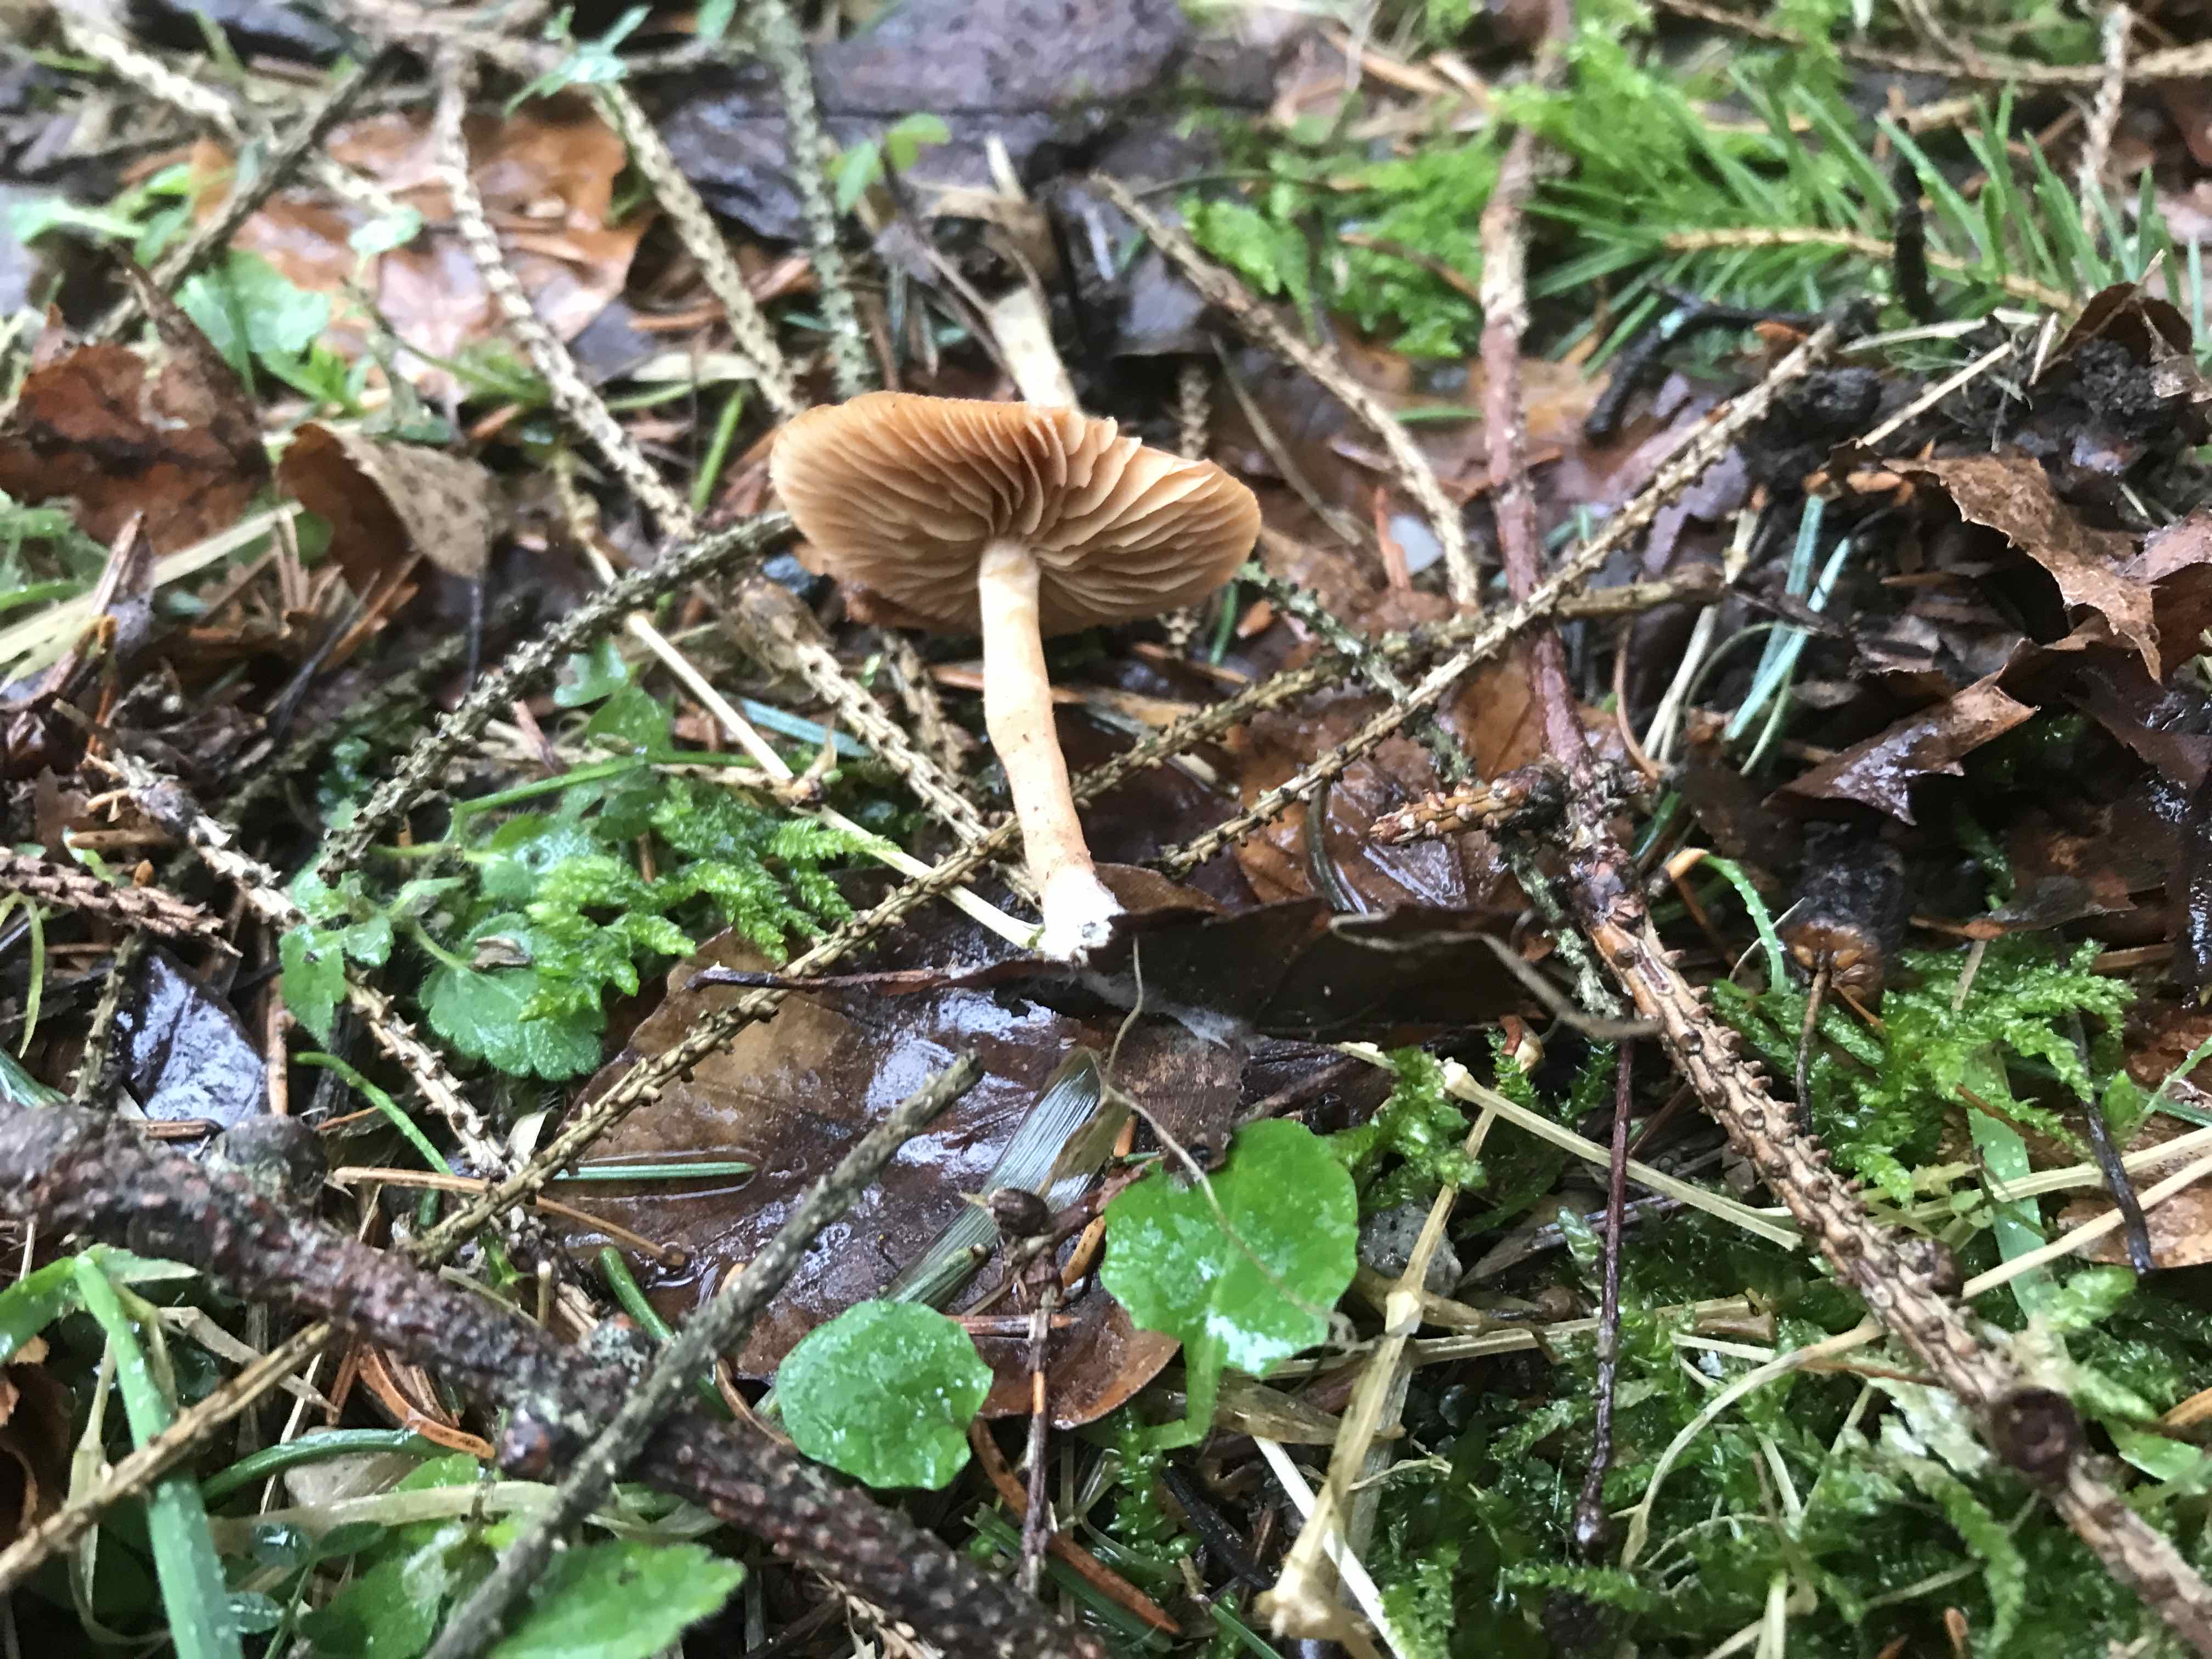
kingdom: Fungi
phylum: Basidiomycota
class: Agaricomycetes
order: Agaricales
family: Tubariaceae
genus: Tubaria
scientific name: Tubaria furfuracea
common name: kliddet fnughat
